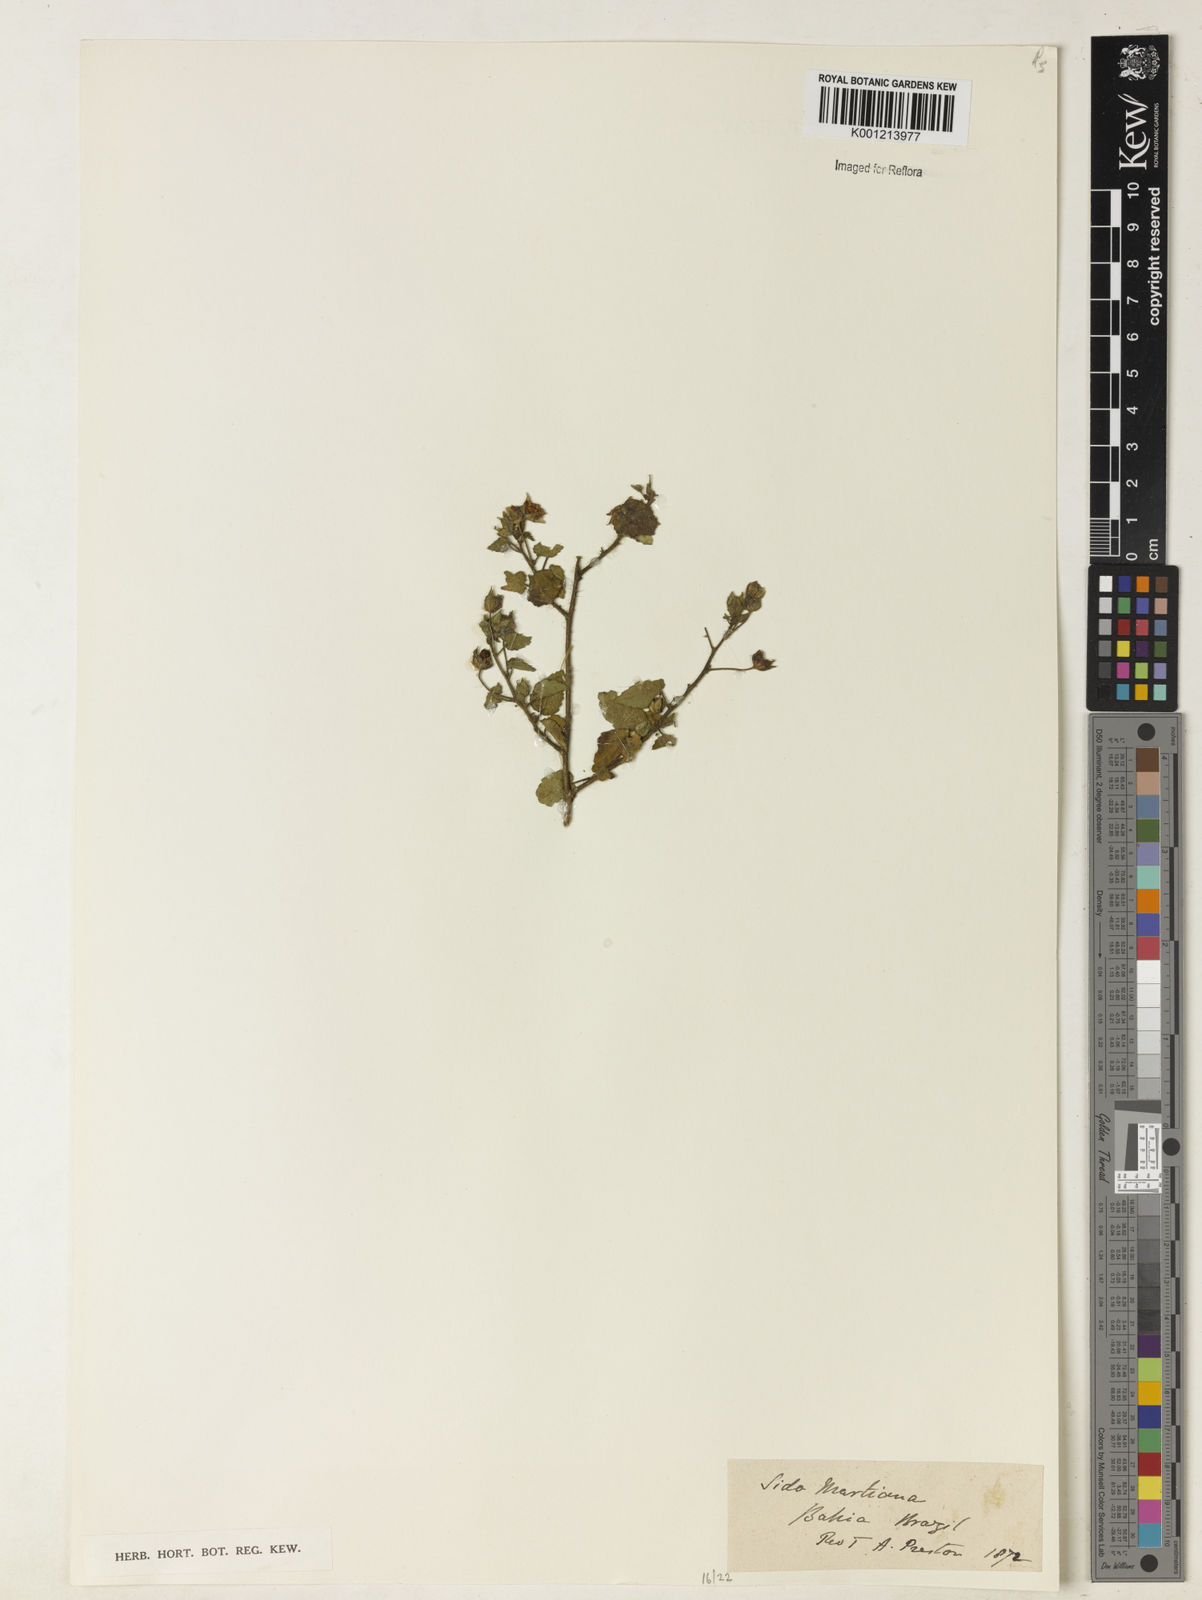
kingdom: Plantae
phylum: Tracheophyta
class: Magnoliopsida
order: Malvales
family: Malvaceae
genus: Sida
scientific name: Sida aurantiaca
